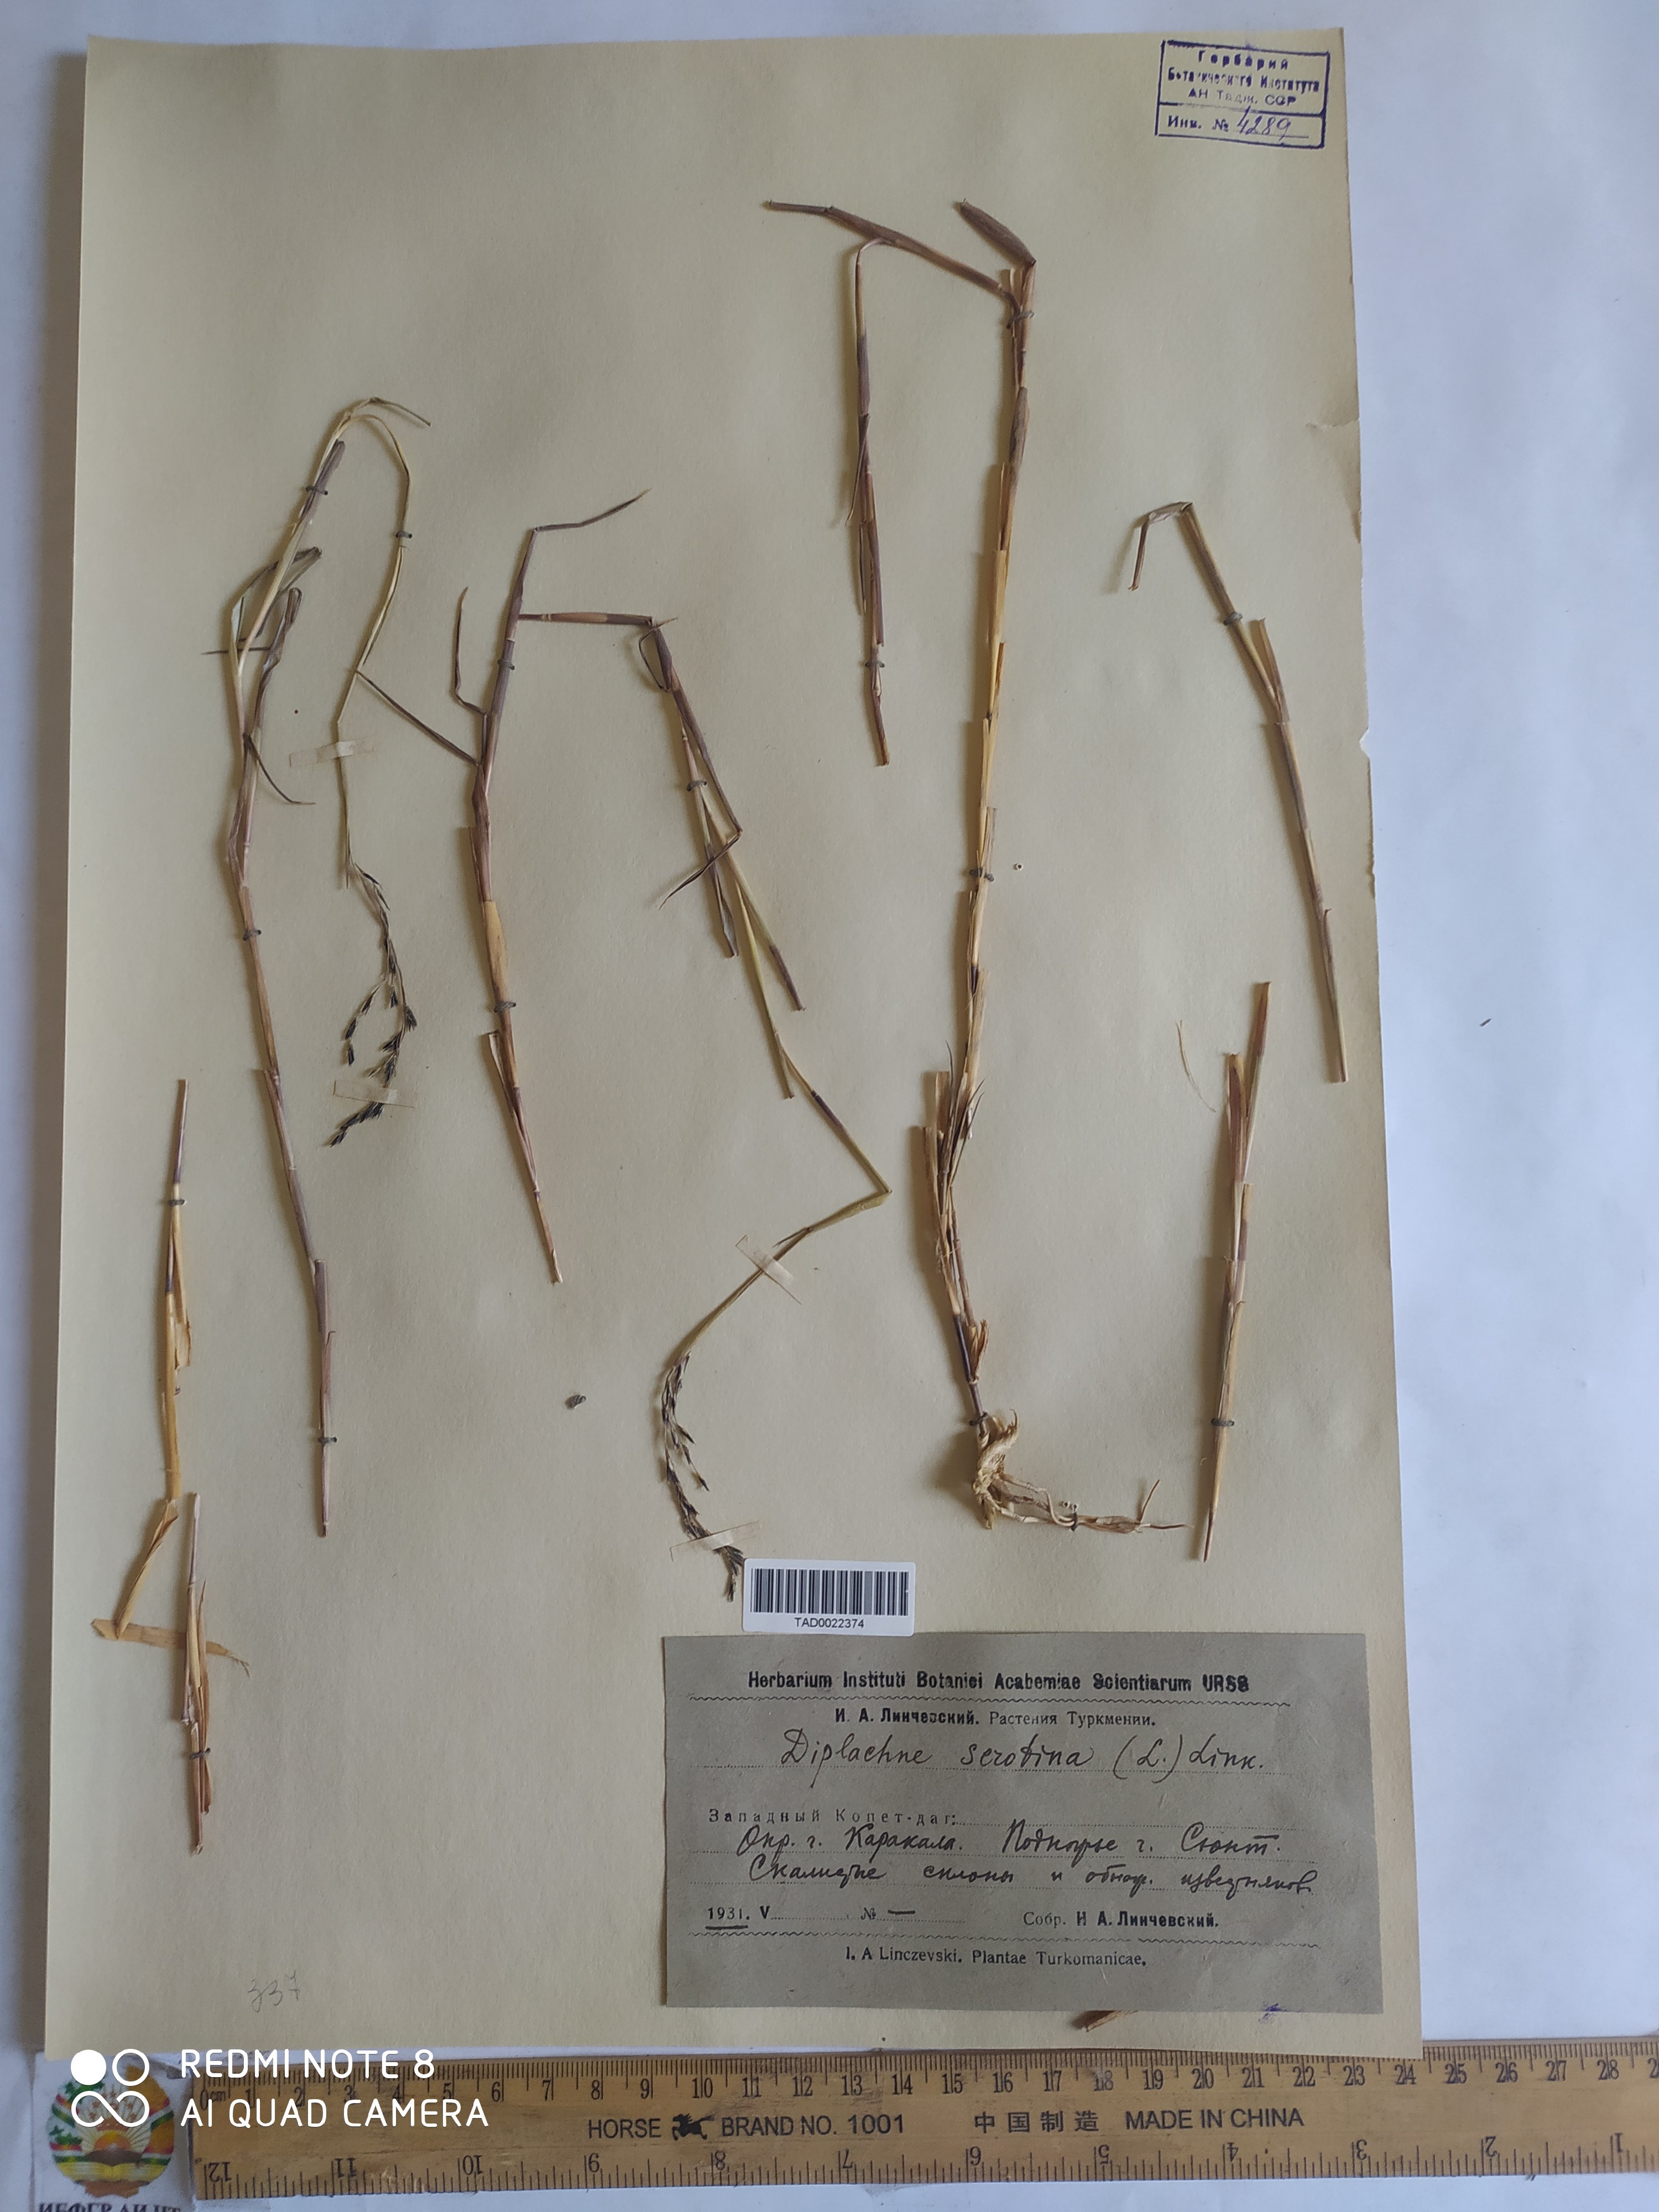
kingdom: Plantae
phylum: Tracheophyta
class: Liliopsida
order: Poales
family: Poaceae
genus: Cleistogenes
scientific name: Cleistogenes serotina
